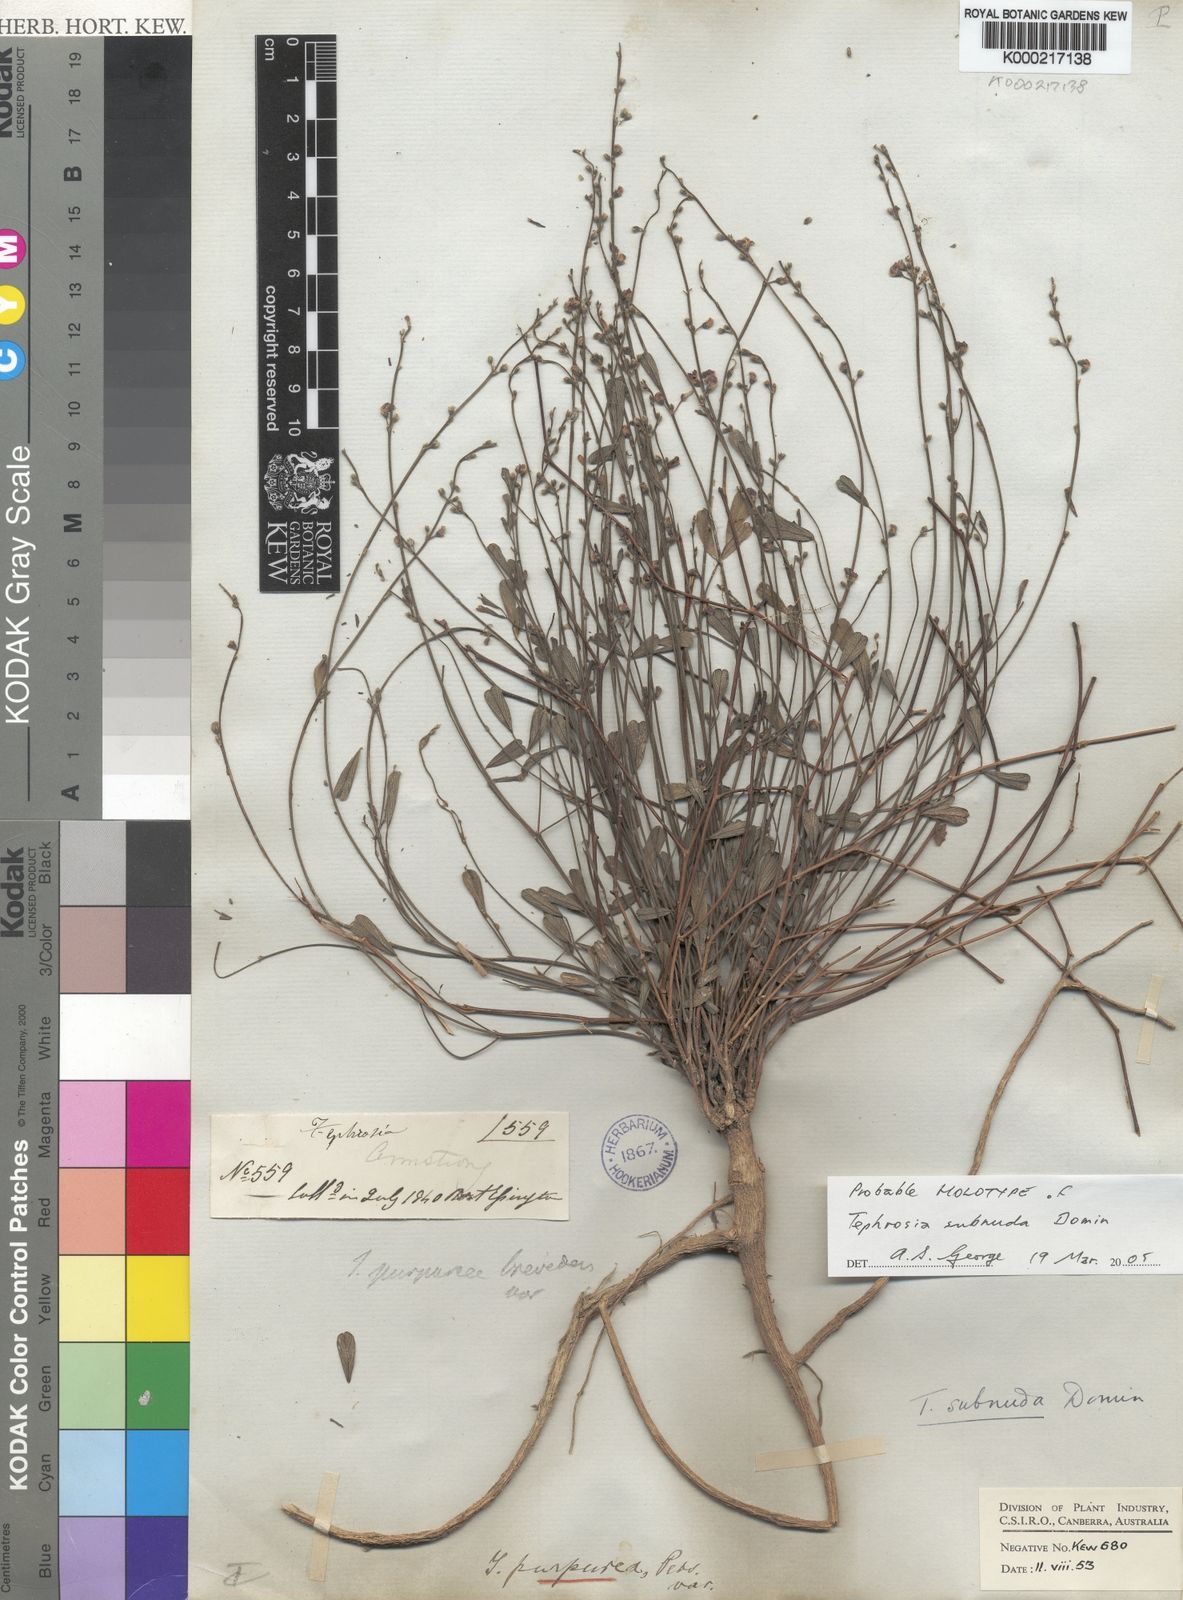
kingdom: Plantae
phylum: Tracheophyta
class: Magnoliopsida
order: Fabales
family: Fabaceae
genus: Tephrosia
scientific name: Tephrosia subnuda
